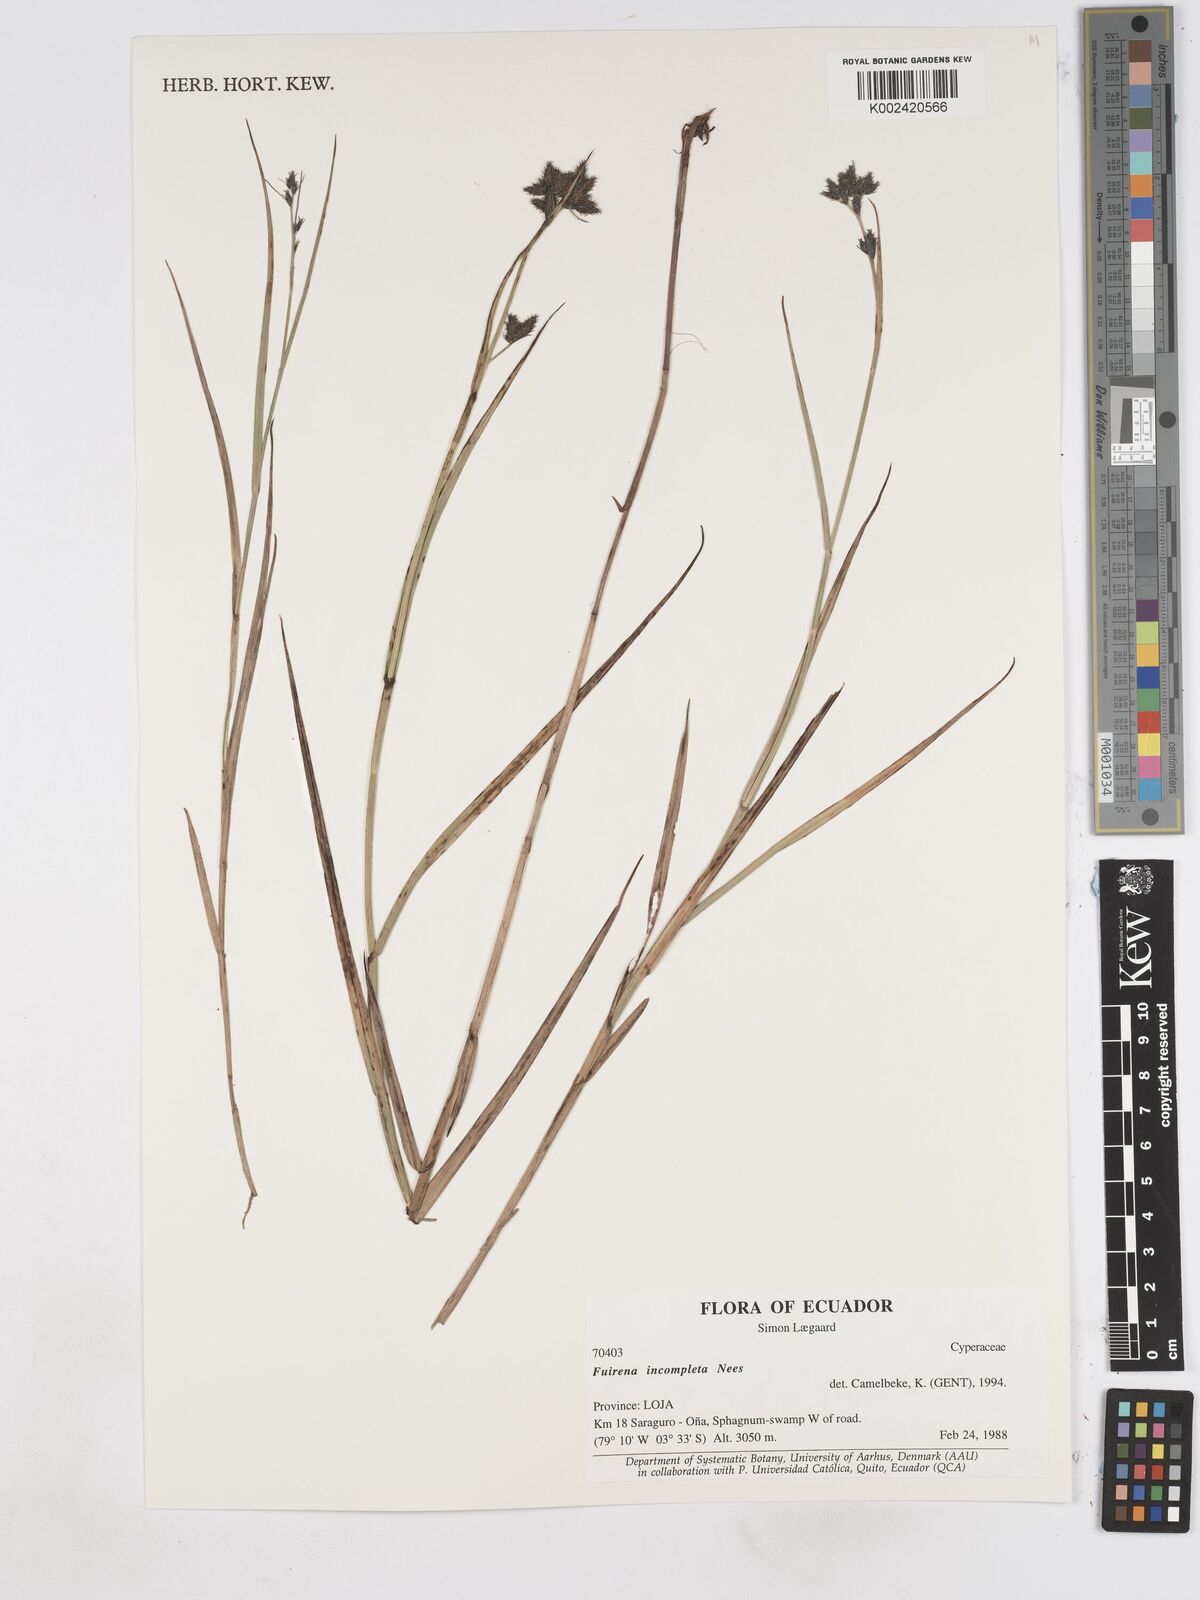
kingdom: Plantae
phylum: Tracheophyta
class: Liliopsida
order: Poales
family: Cyperaceae
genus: Fuirena
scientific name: Fuirena incompleta
